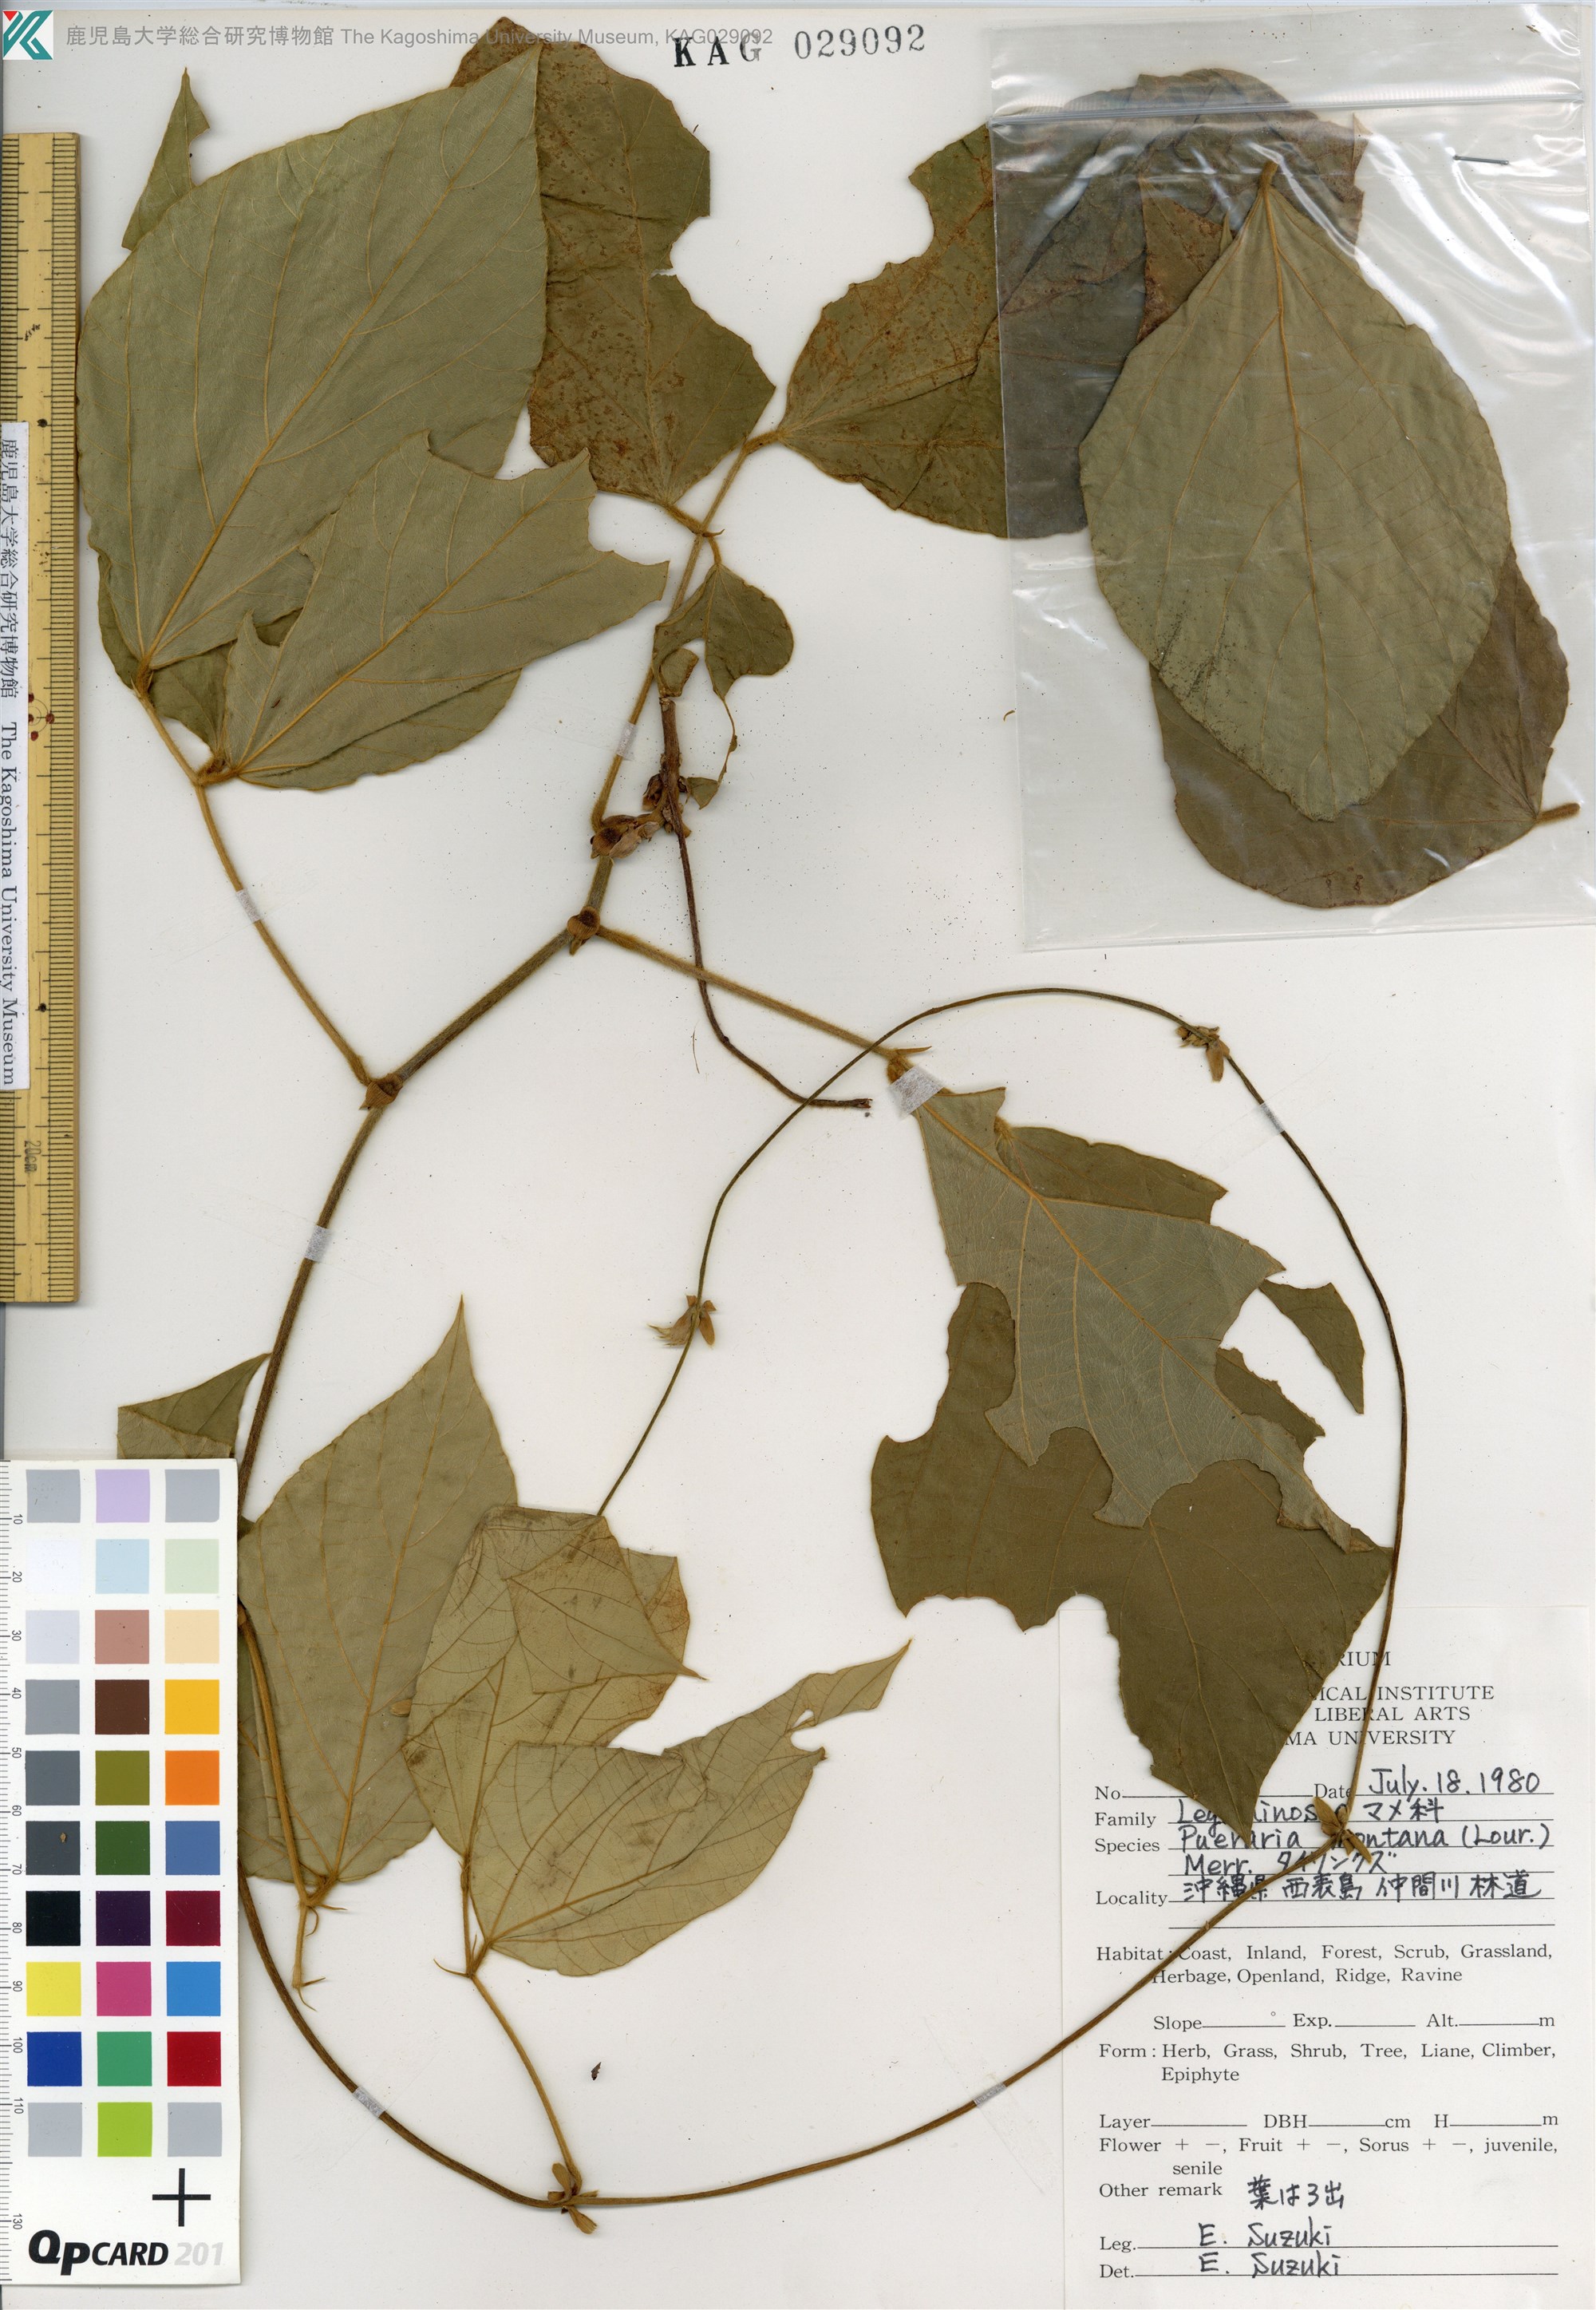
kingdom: Plantae
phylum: Tracheophyta
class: Magnoliopsida
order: Fabales
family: Fabaceae
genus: Pueraria
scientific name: Pueraria montana
